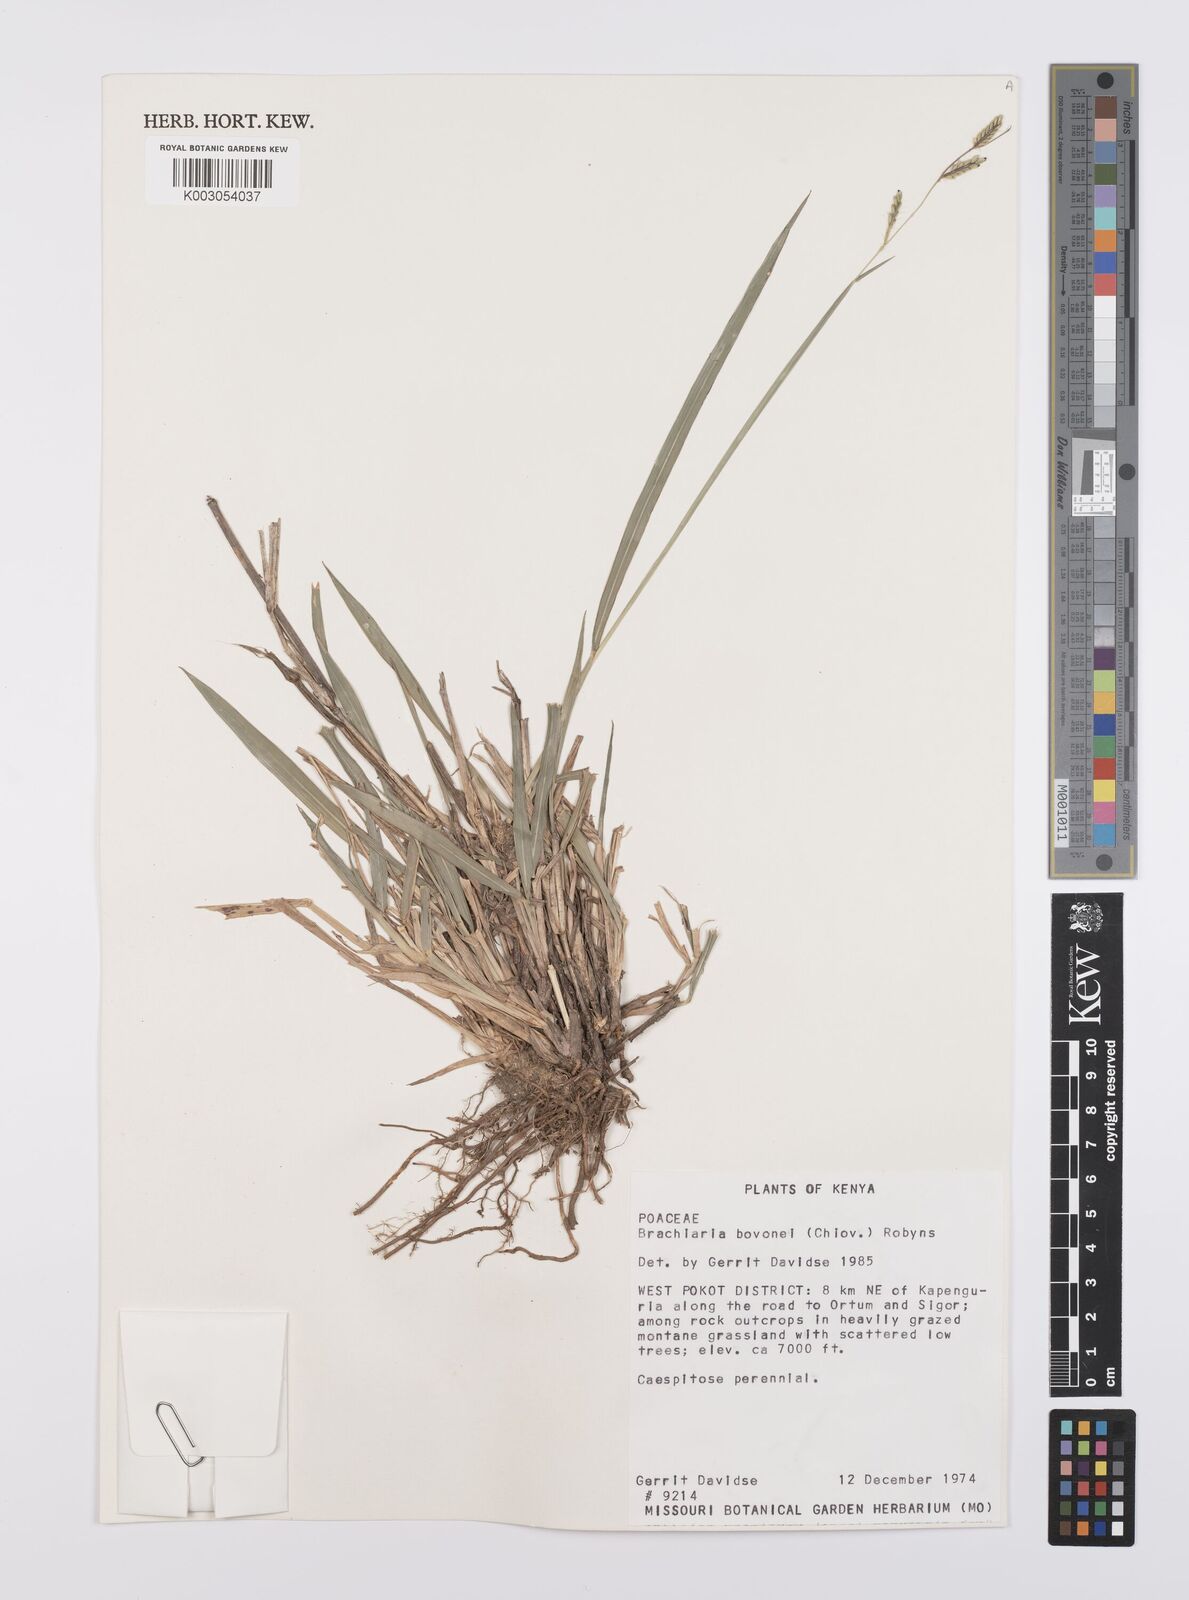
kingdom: Plantae
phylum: Tracheophyta
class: Liliopsida
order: Poales
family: Poaceae
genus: Urochloa
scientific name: Urochloa jubata
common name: Buffalograss
